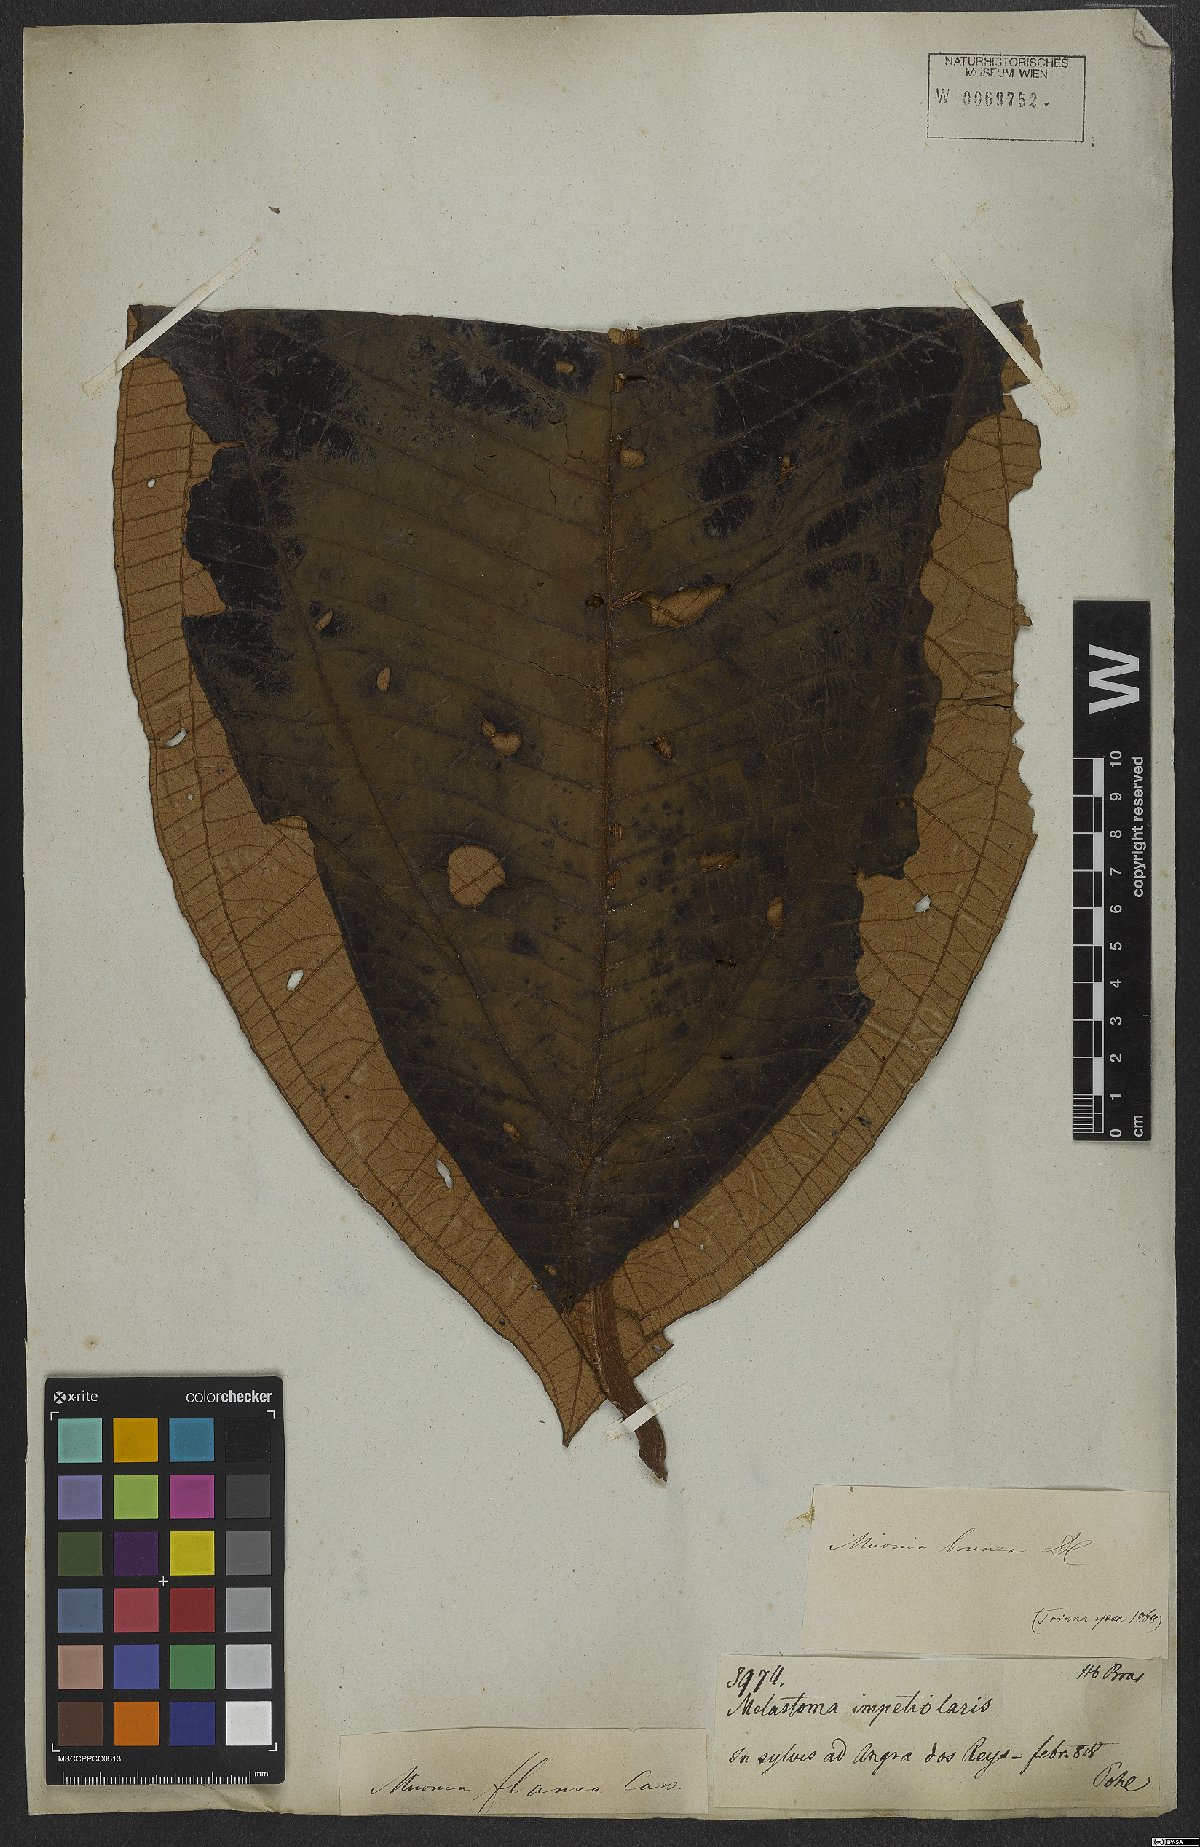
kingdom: Plantae
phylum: Tracheophyta
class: Magnoliopsida
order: Myrtales
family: Melastomataceae
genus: Miconia
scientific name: Miconia brunnea
